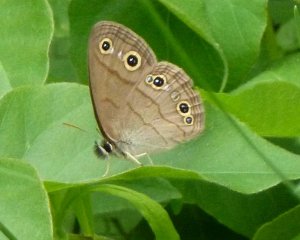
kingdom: Animalia
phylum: Arthropoda
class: Insecta
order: Lepidoptera
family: Nymphalidae
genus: Euptychia
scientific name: Euptychia cymela
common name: Little Wood Satyr
